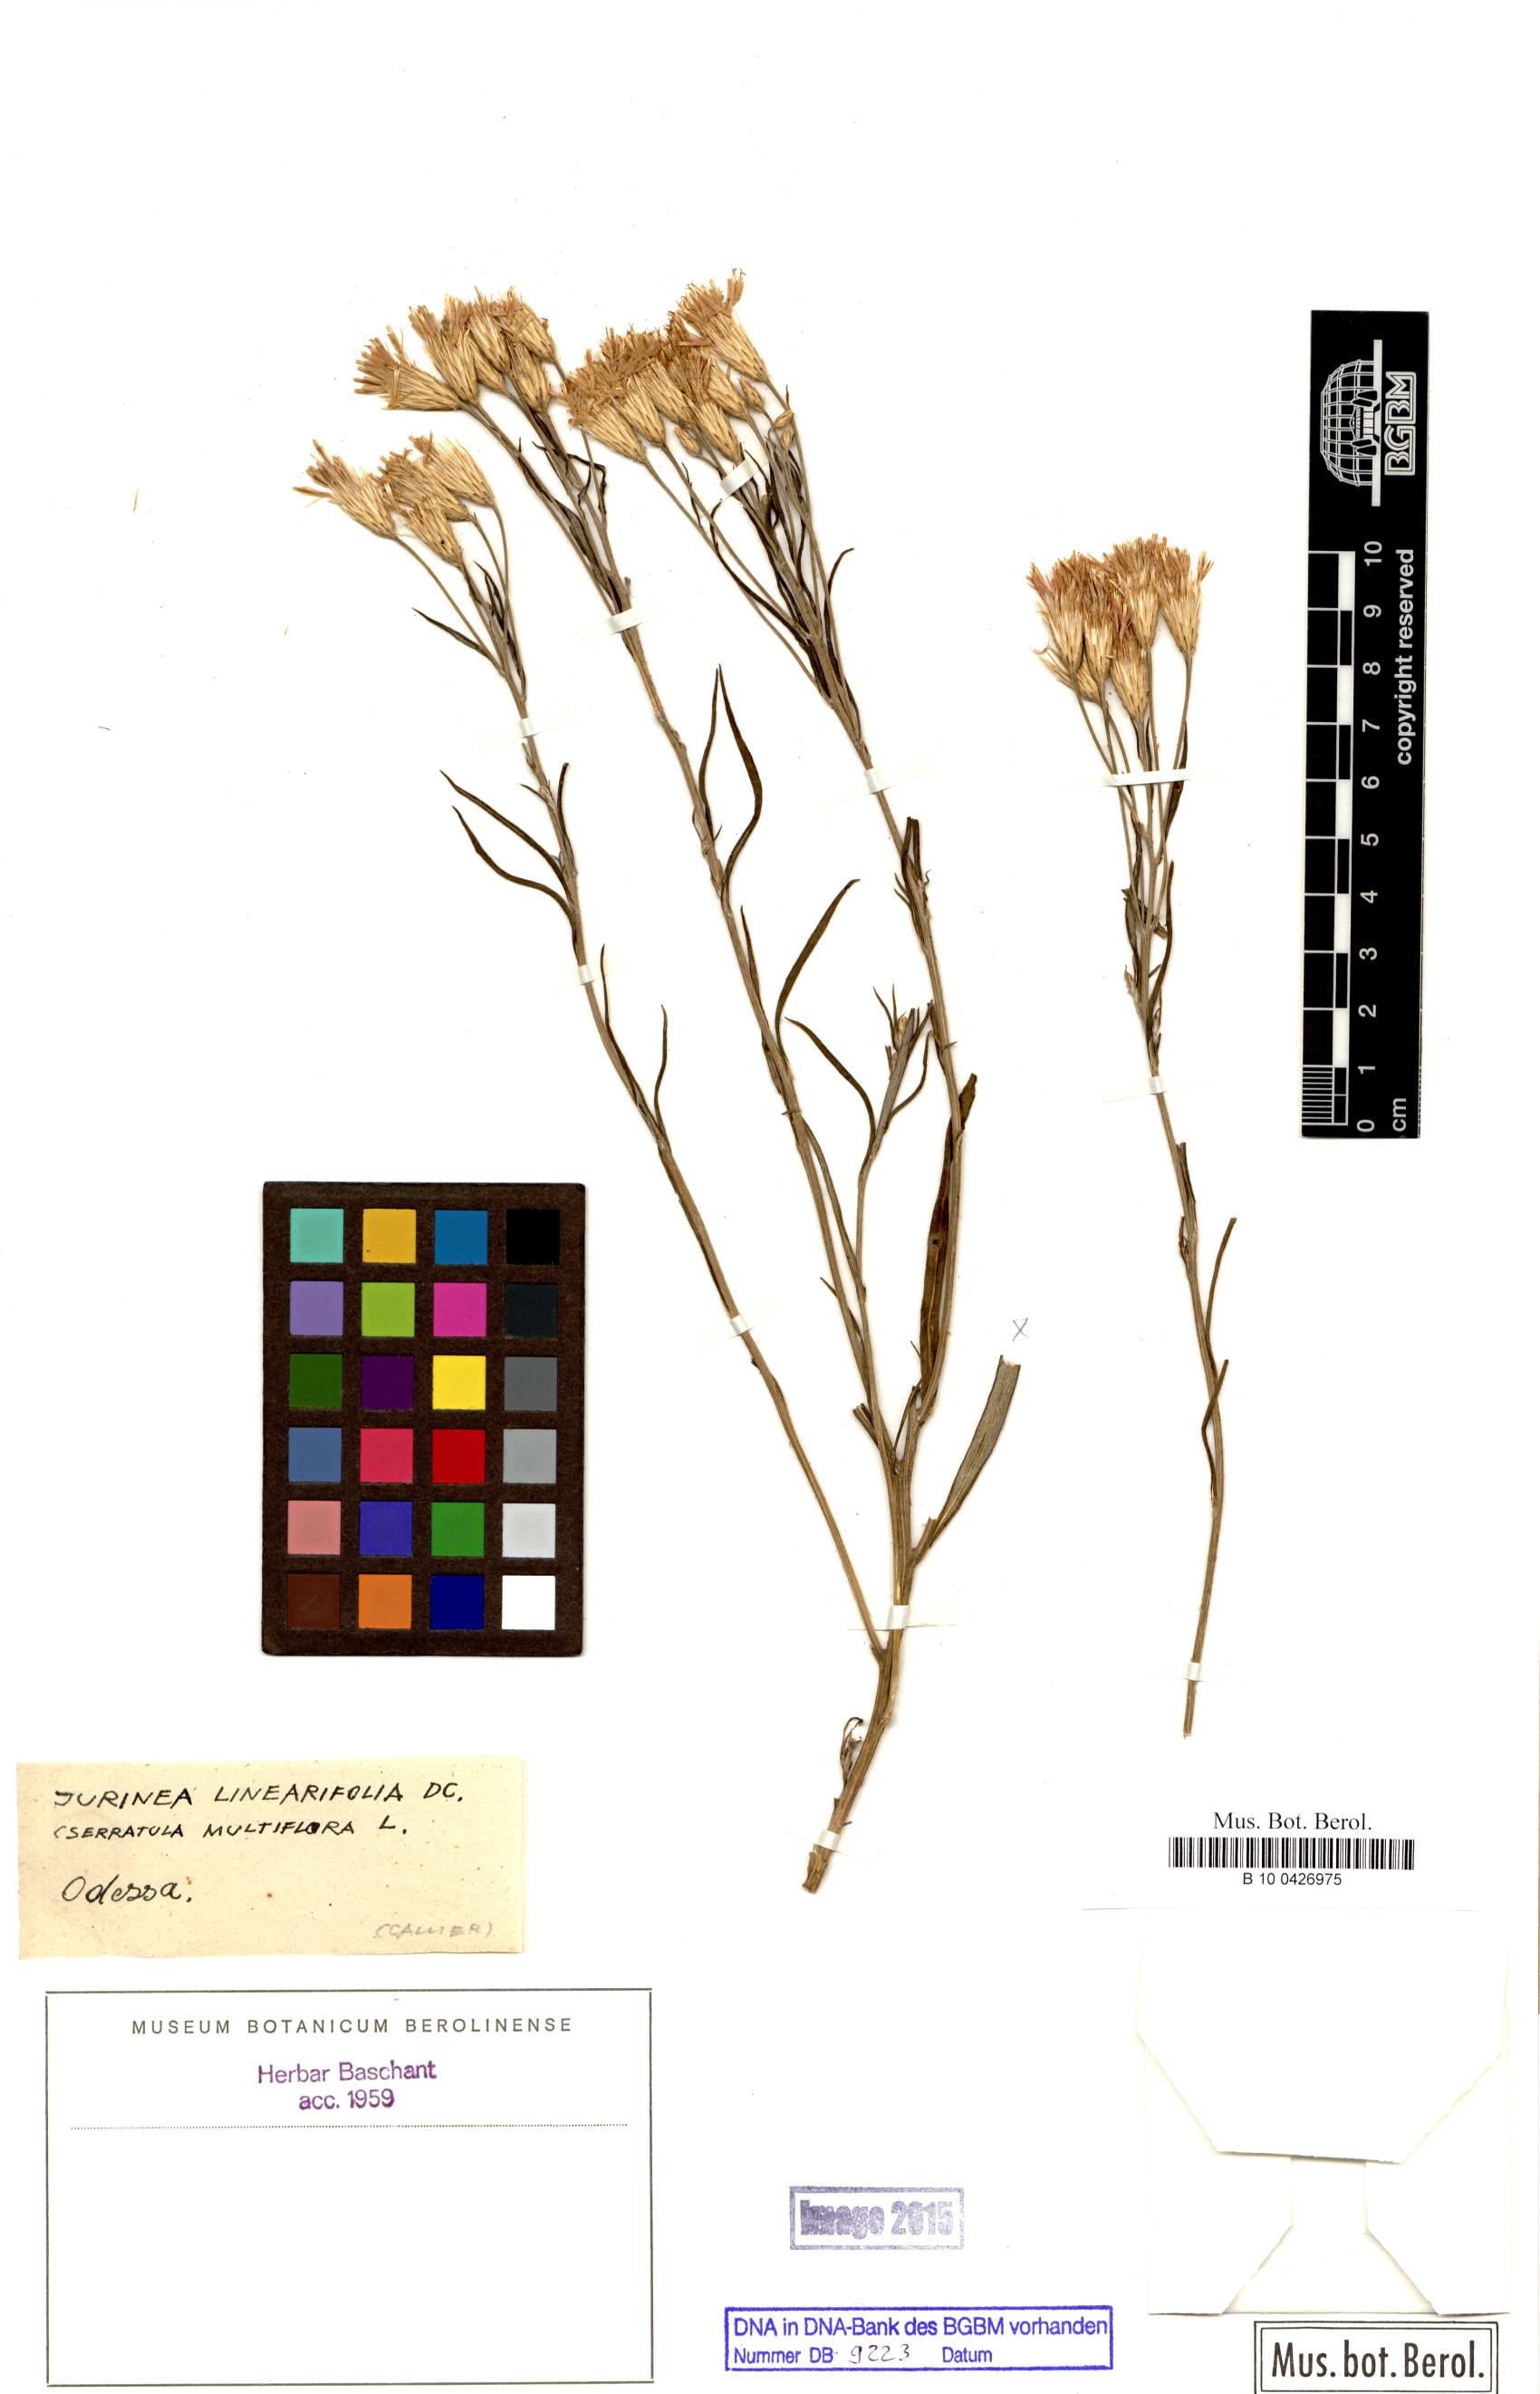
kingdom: Plantae
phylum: Tracheophyta
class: Magnoliopsida
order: Asterales
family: Asteraceae
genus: Jurinea
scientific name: Jurinea multiflora
